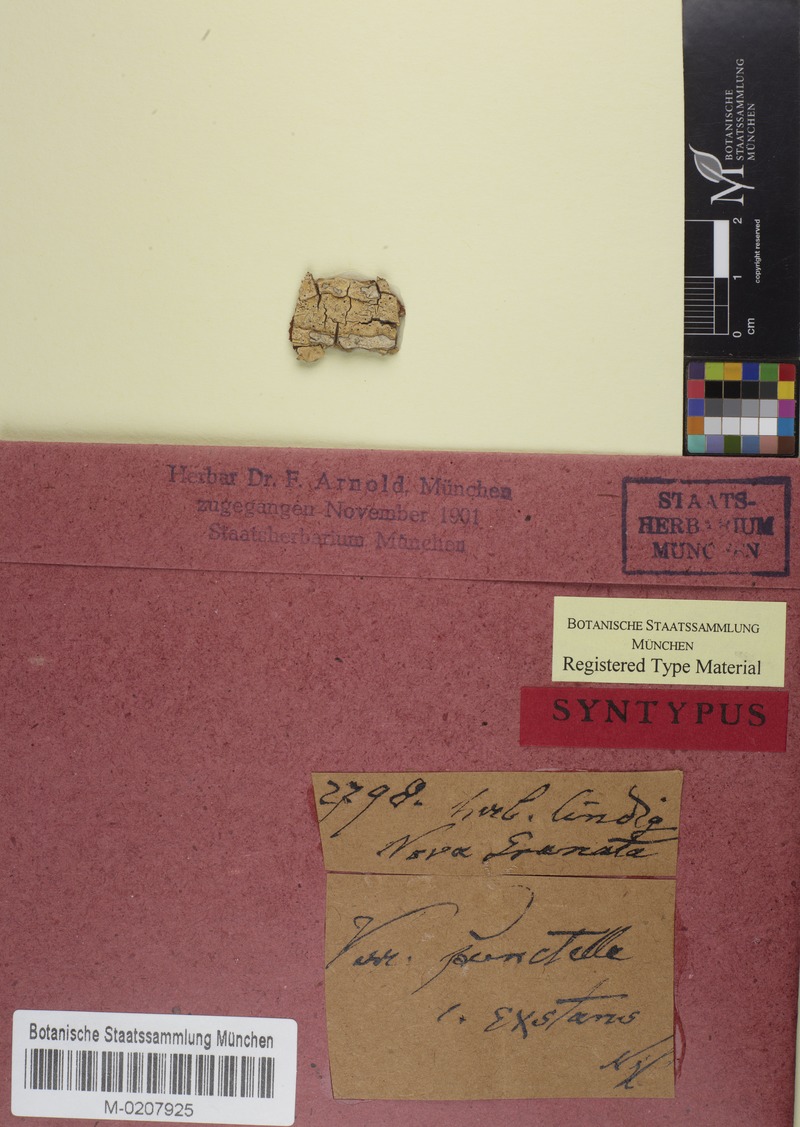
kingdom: Fungi
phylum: Ascomycota
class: Eurotiomycetes
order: Pyrenulales
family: Pyrenulaceae
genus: Pyrenula
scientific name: Pyrenula pinguis
